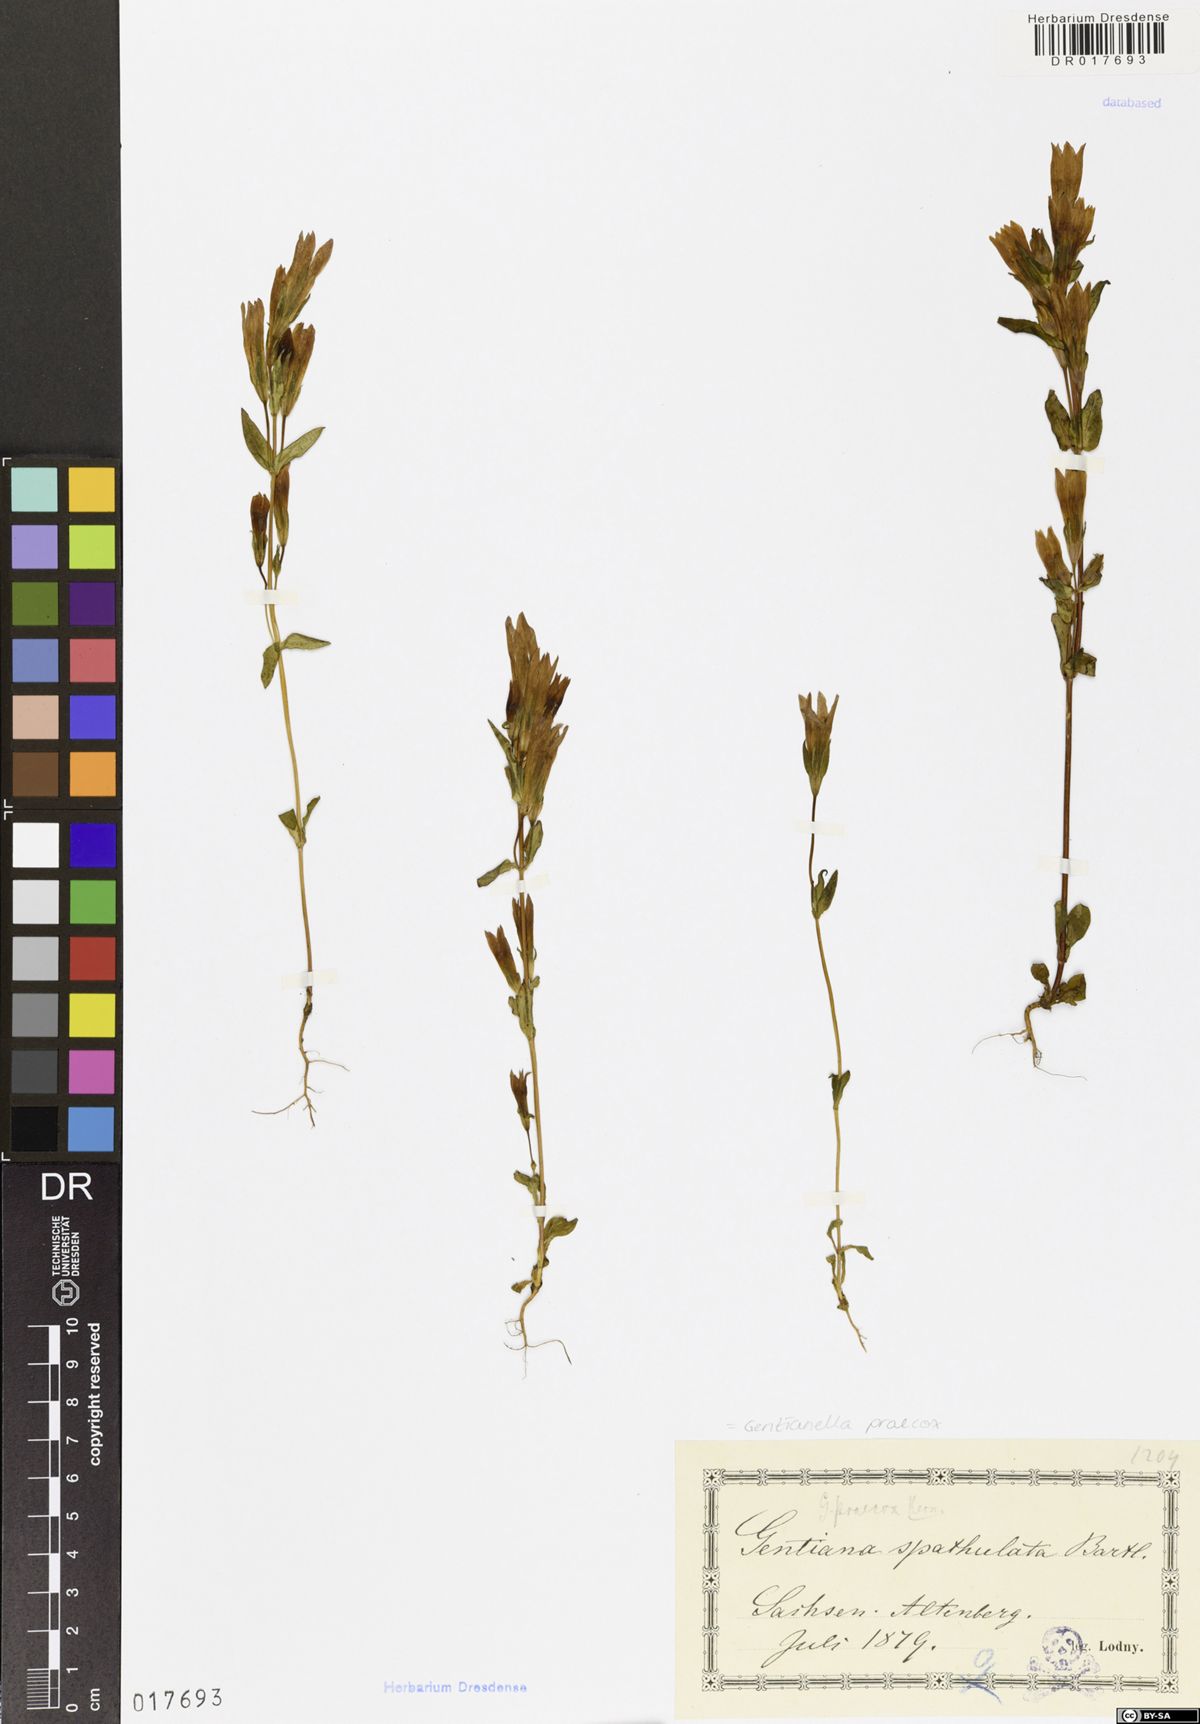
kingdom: Plantae
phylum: Tracheophyta
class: Magnoliopsida
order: Gentianales
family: Gentianaceae
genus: Gentianella
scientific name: Gentianella praecox
